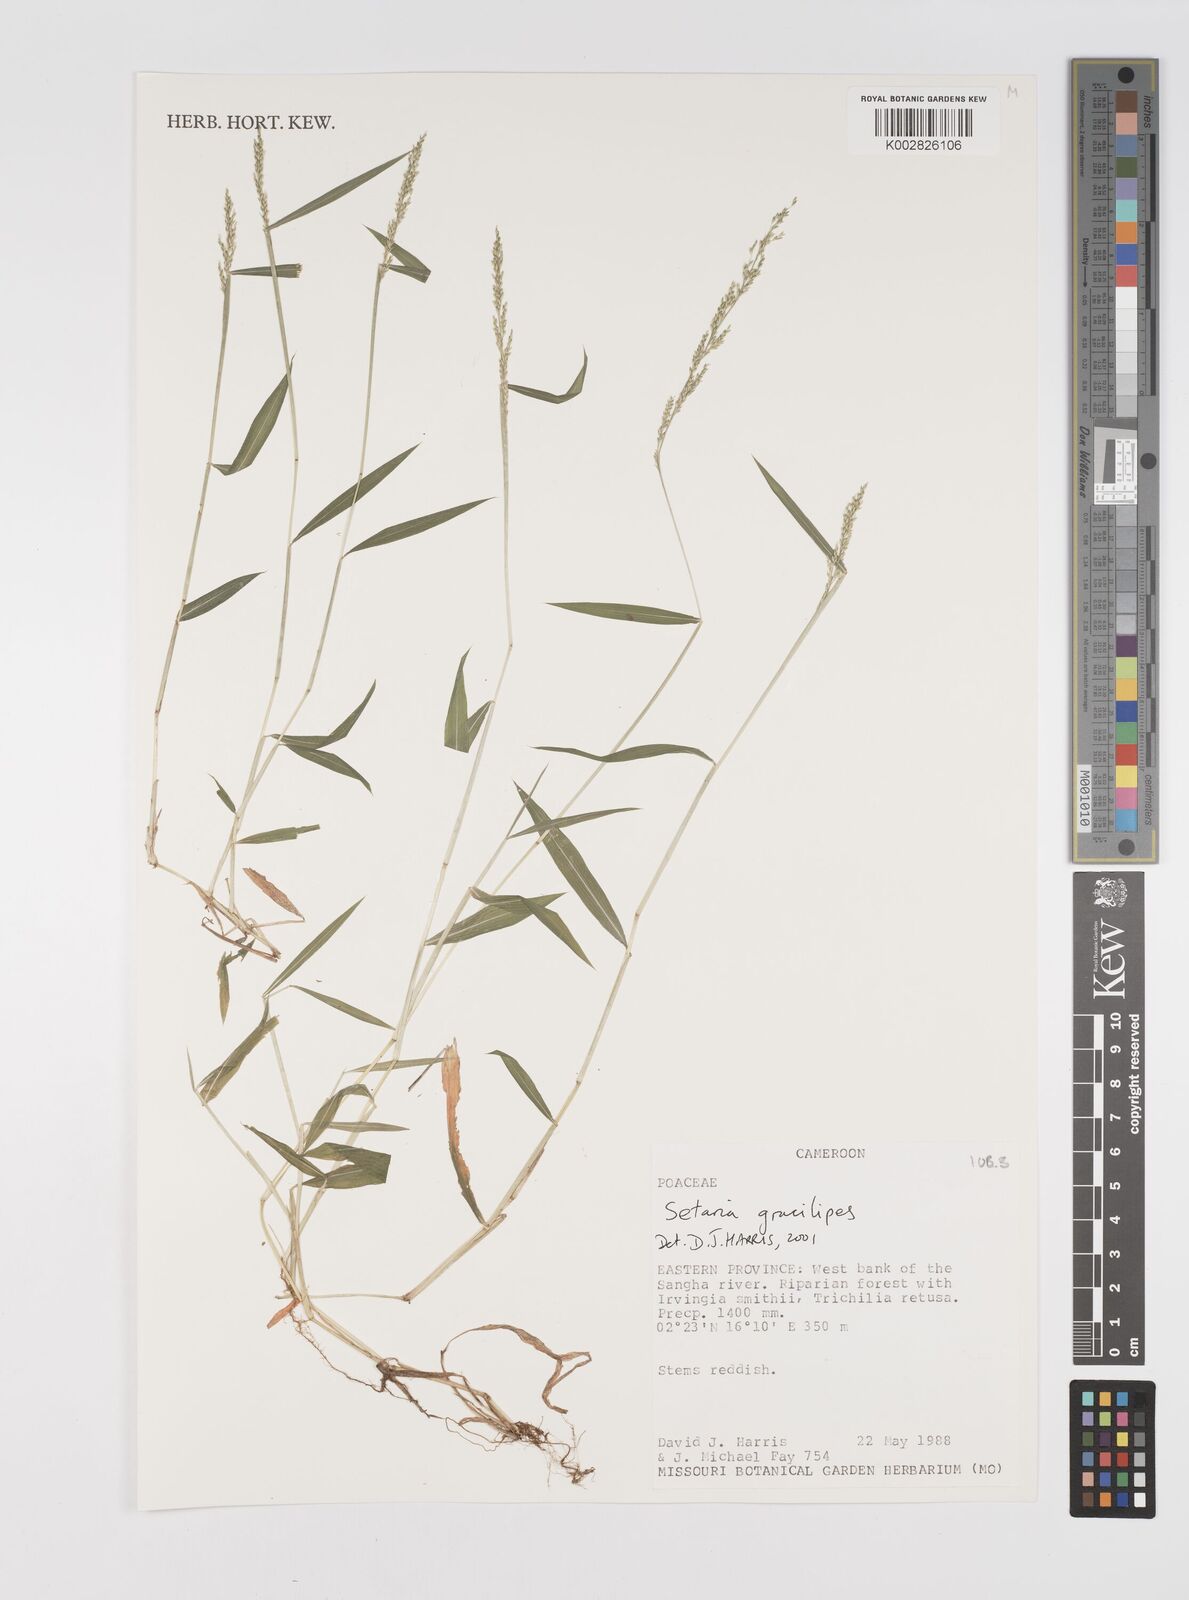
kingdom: Plantae
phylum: Tracheophyta
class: Liliopsida
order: Poales
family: Poaceae
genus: Setaria
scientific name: Setaria barbata
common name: East indian bristlegrass
